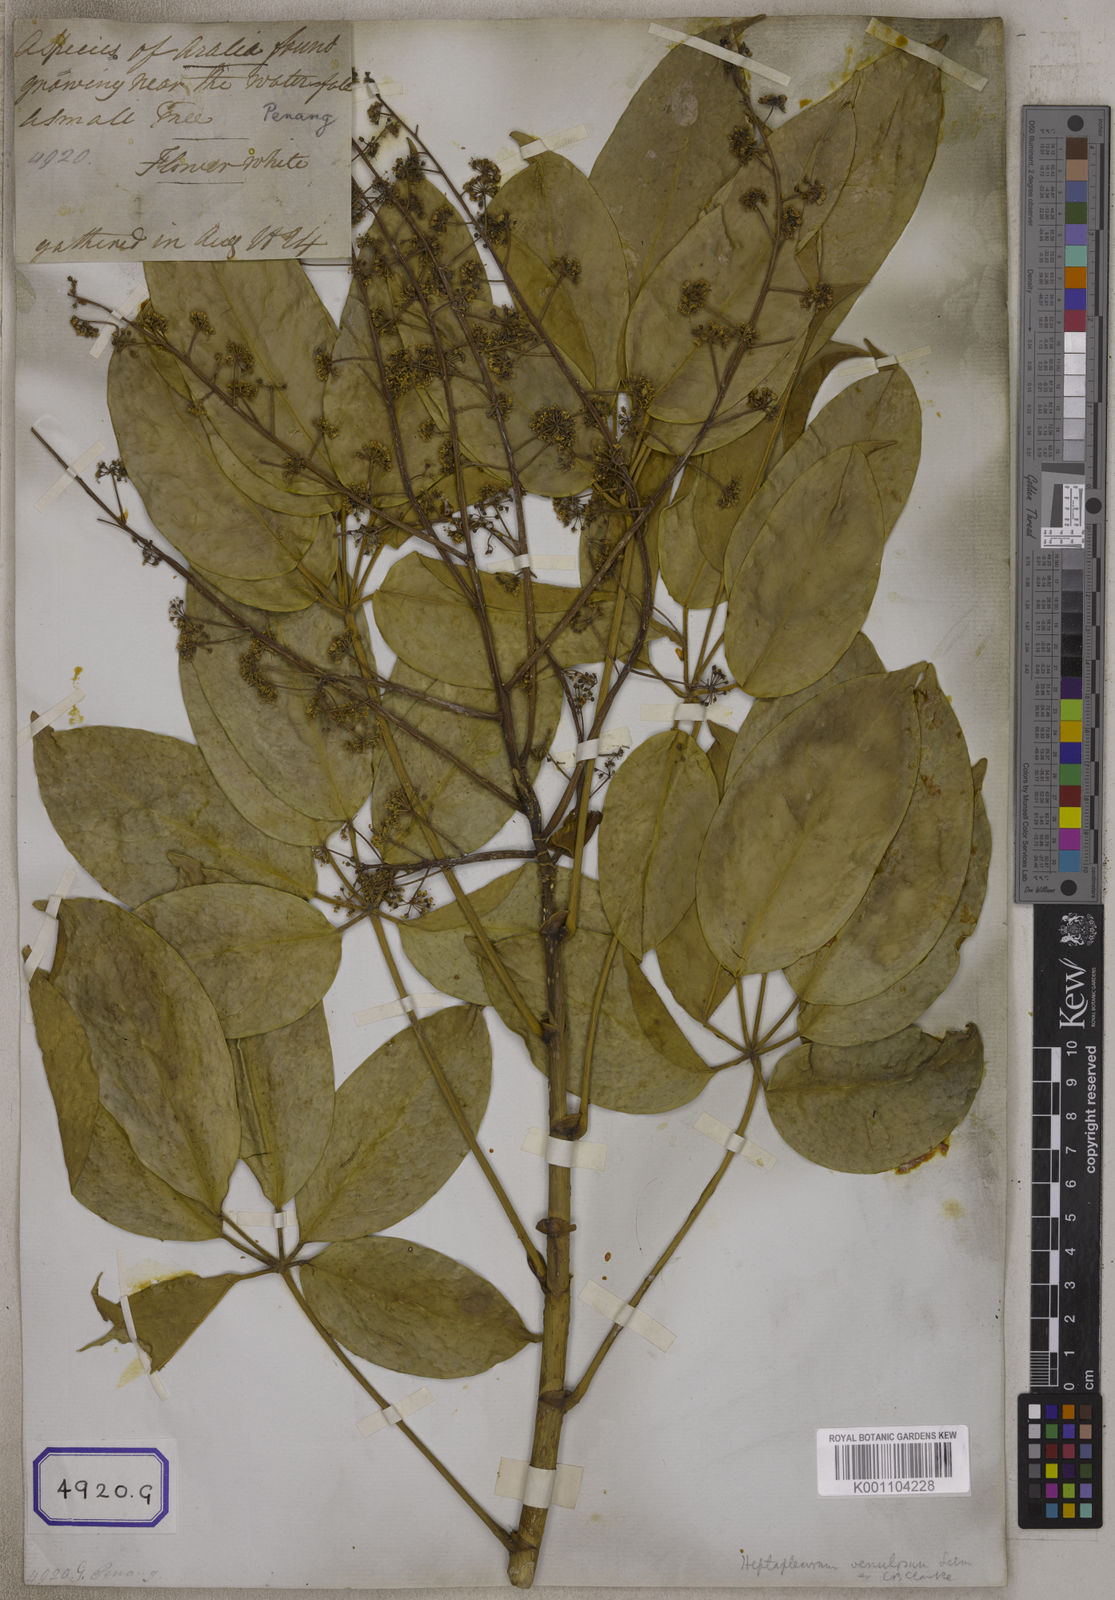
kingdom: Plantae
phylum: Tracheophyta
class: Magnoliopsida
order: Apiales
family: Araliaceae
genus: Hedera
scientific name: Hedera
